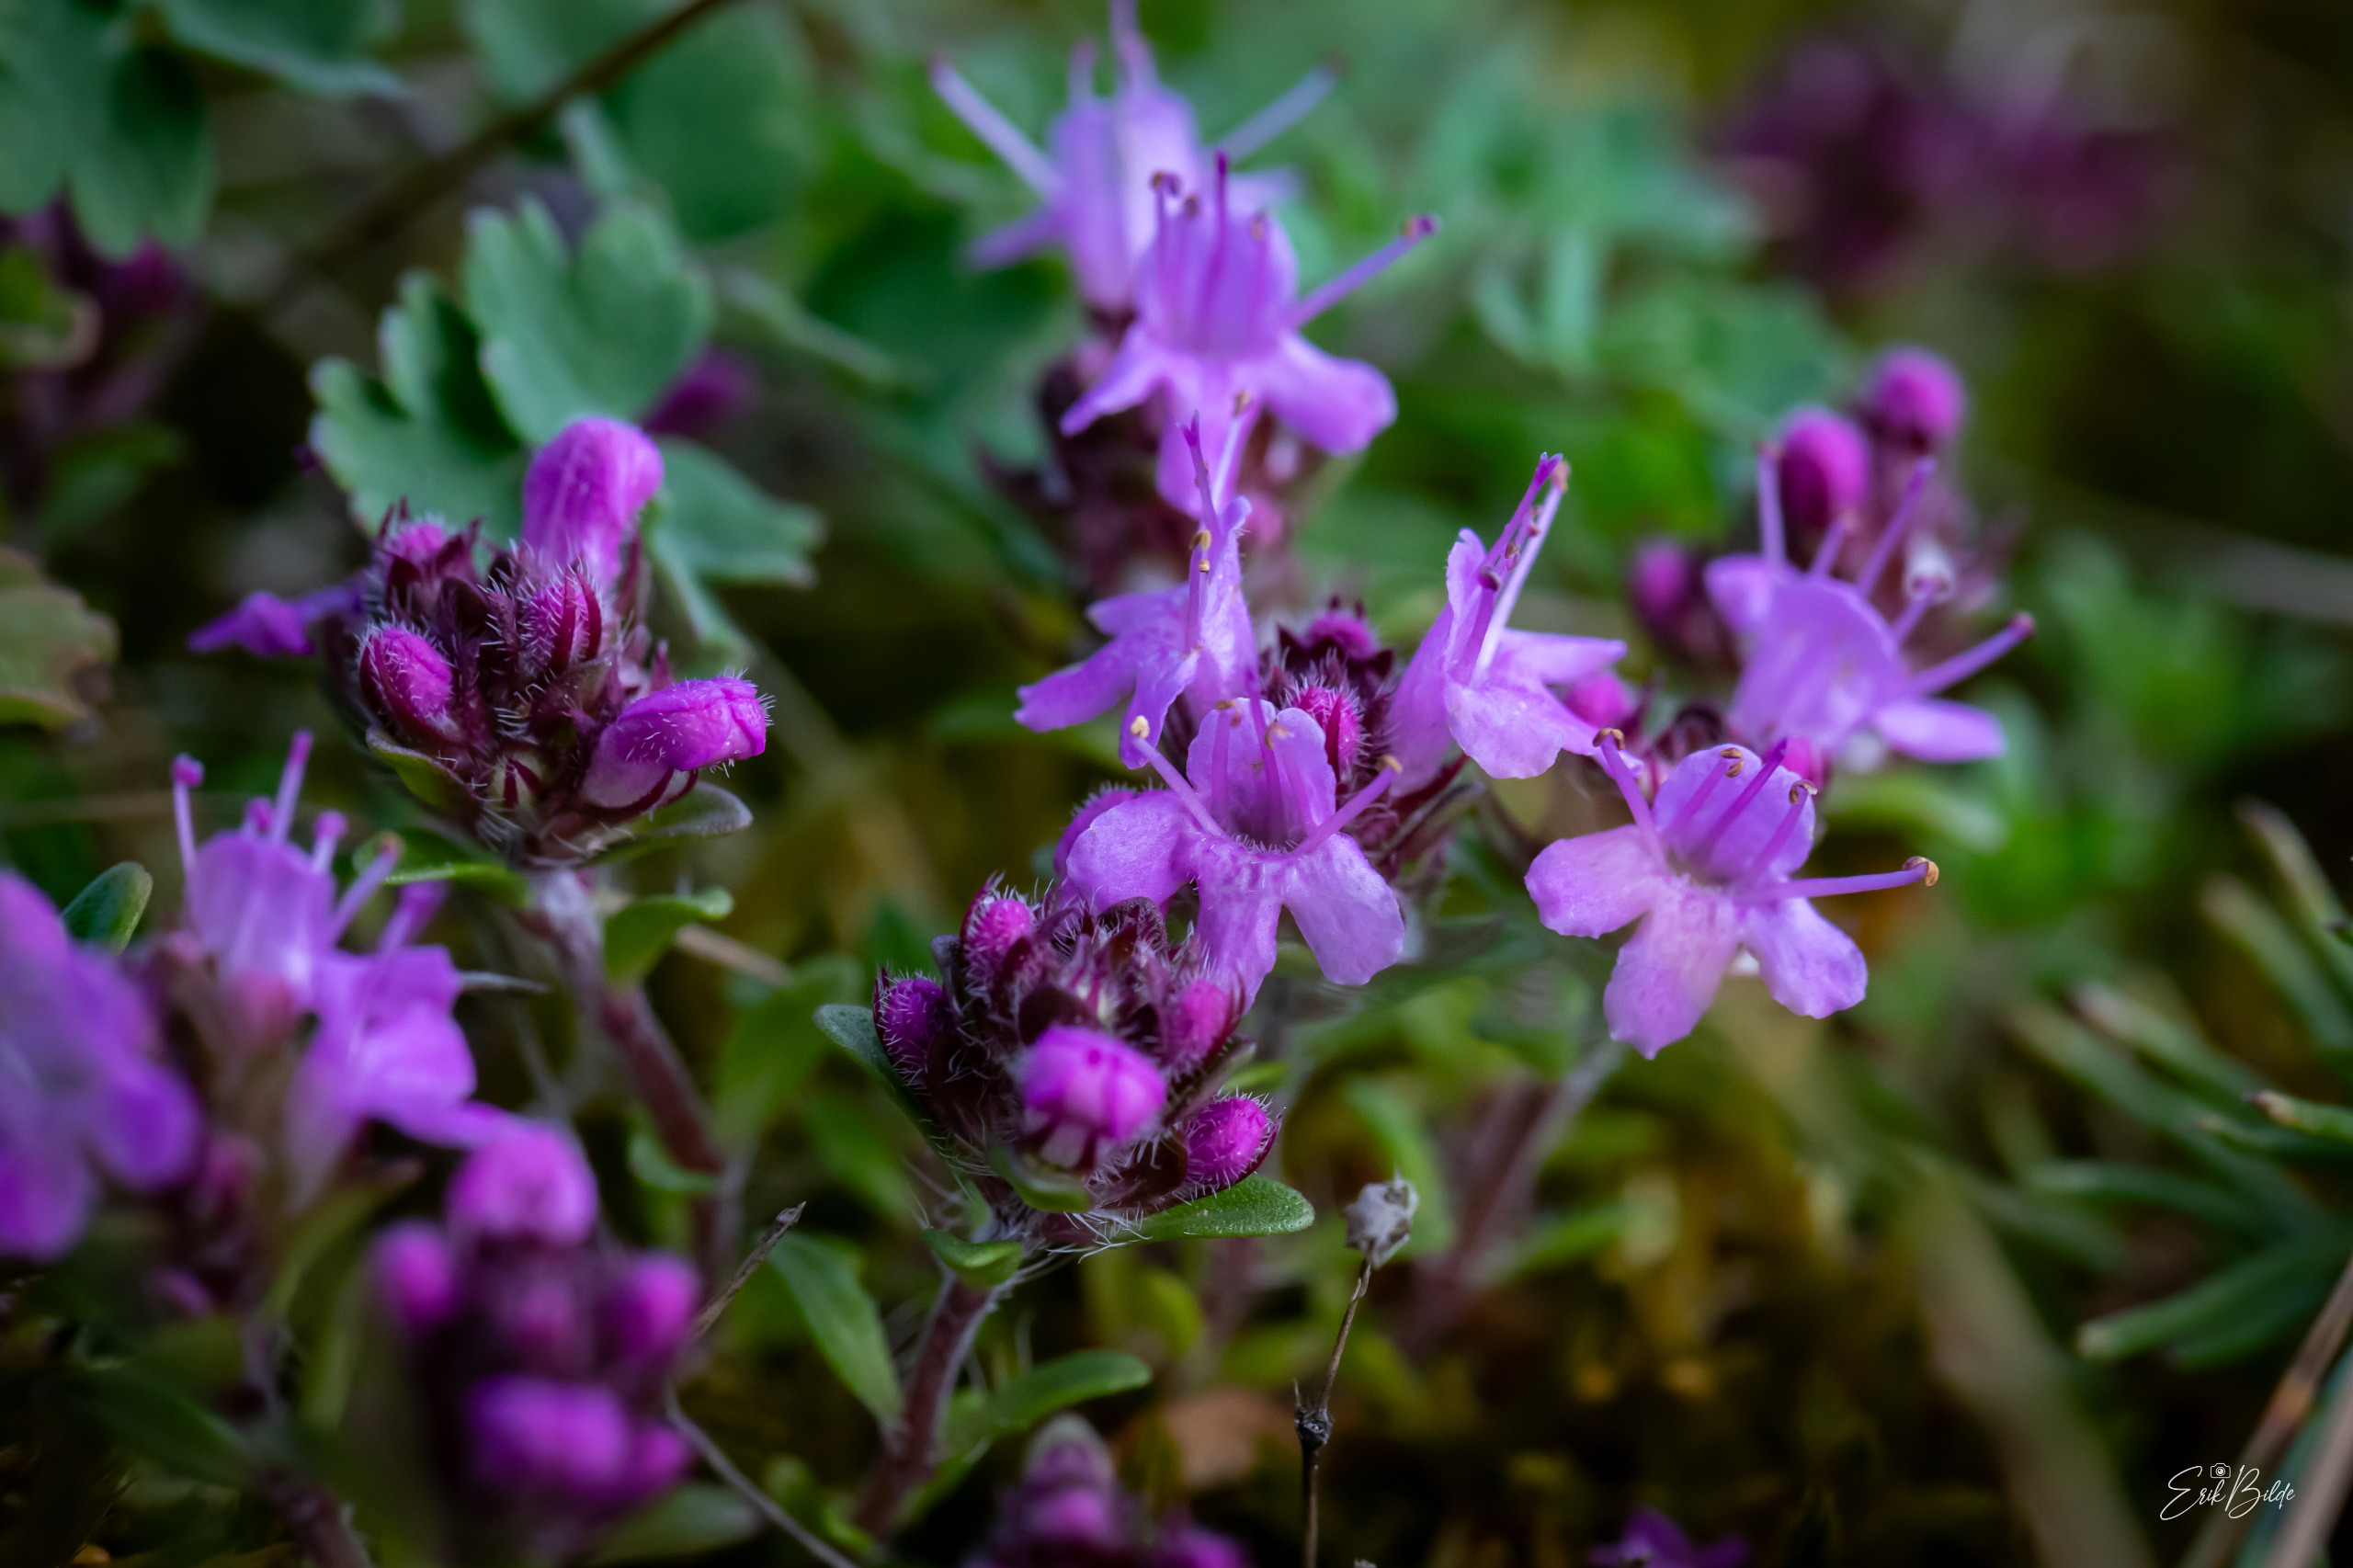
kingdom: Plantae
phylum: Tracheophyta
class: Magnoliopsida
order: Lamiales
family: Lamiaceae
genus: Thymus
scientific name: Thymus serpyllum
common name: Smalbladet timian
